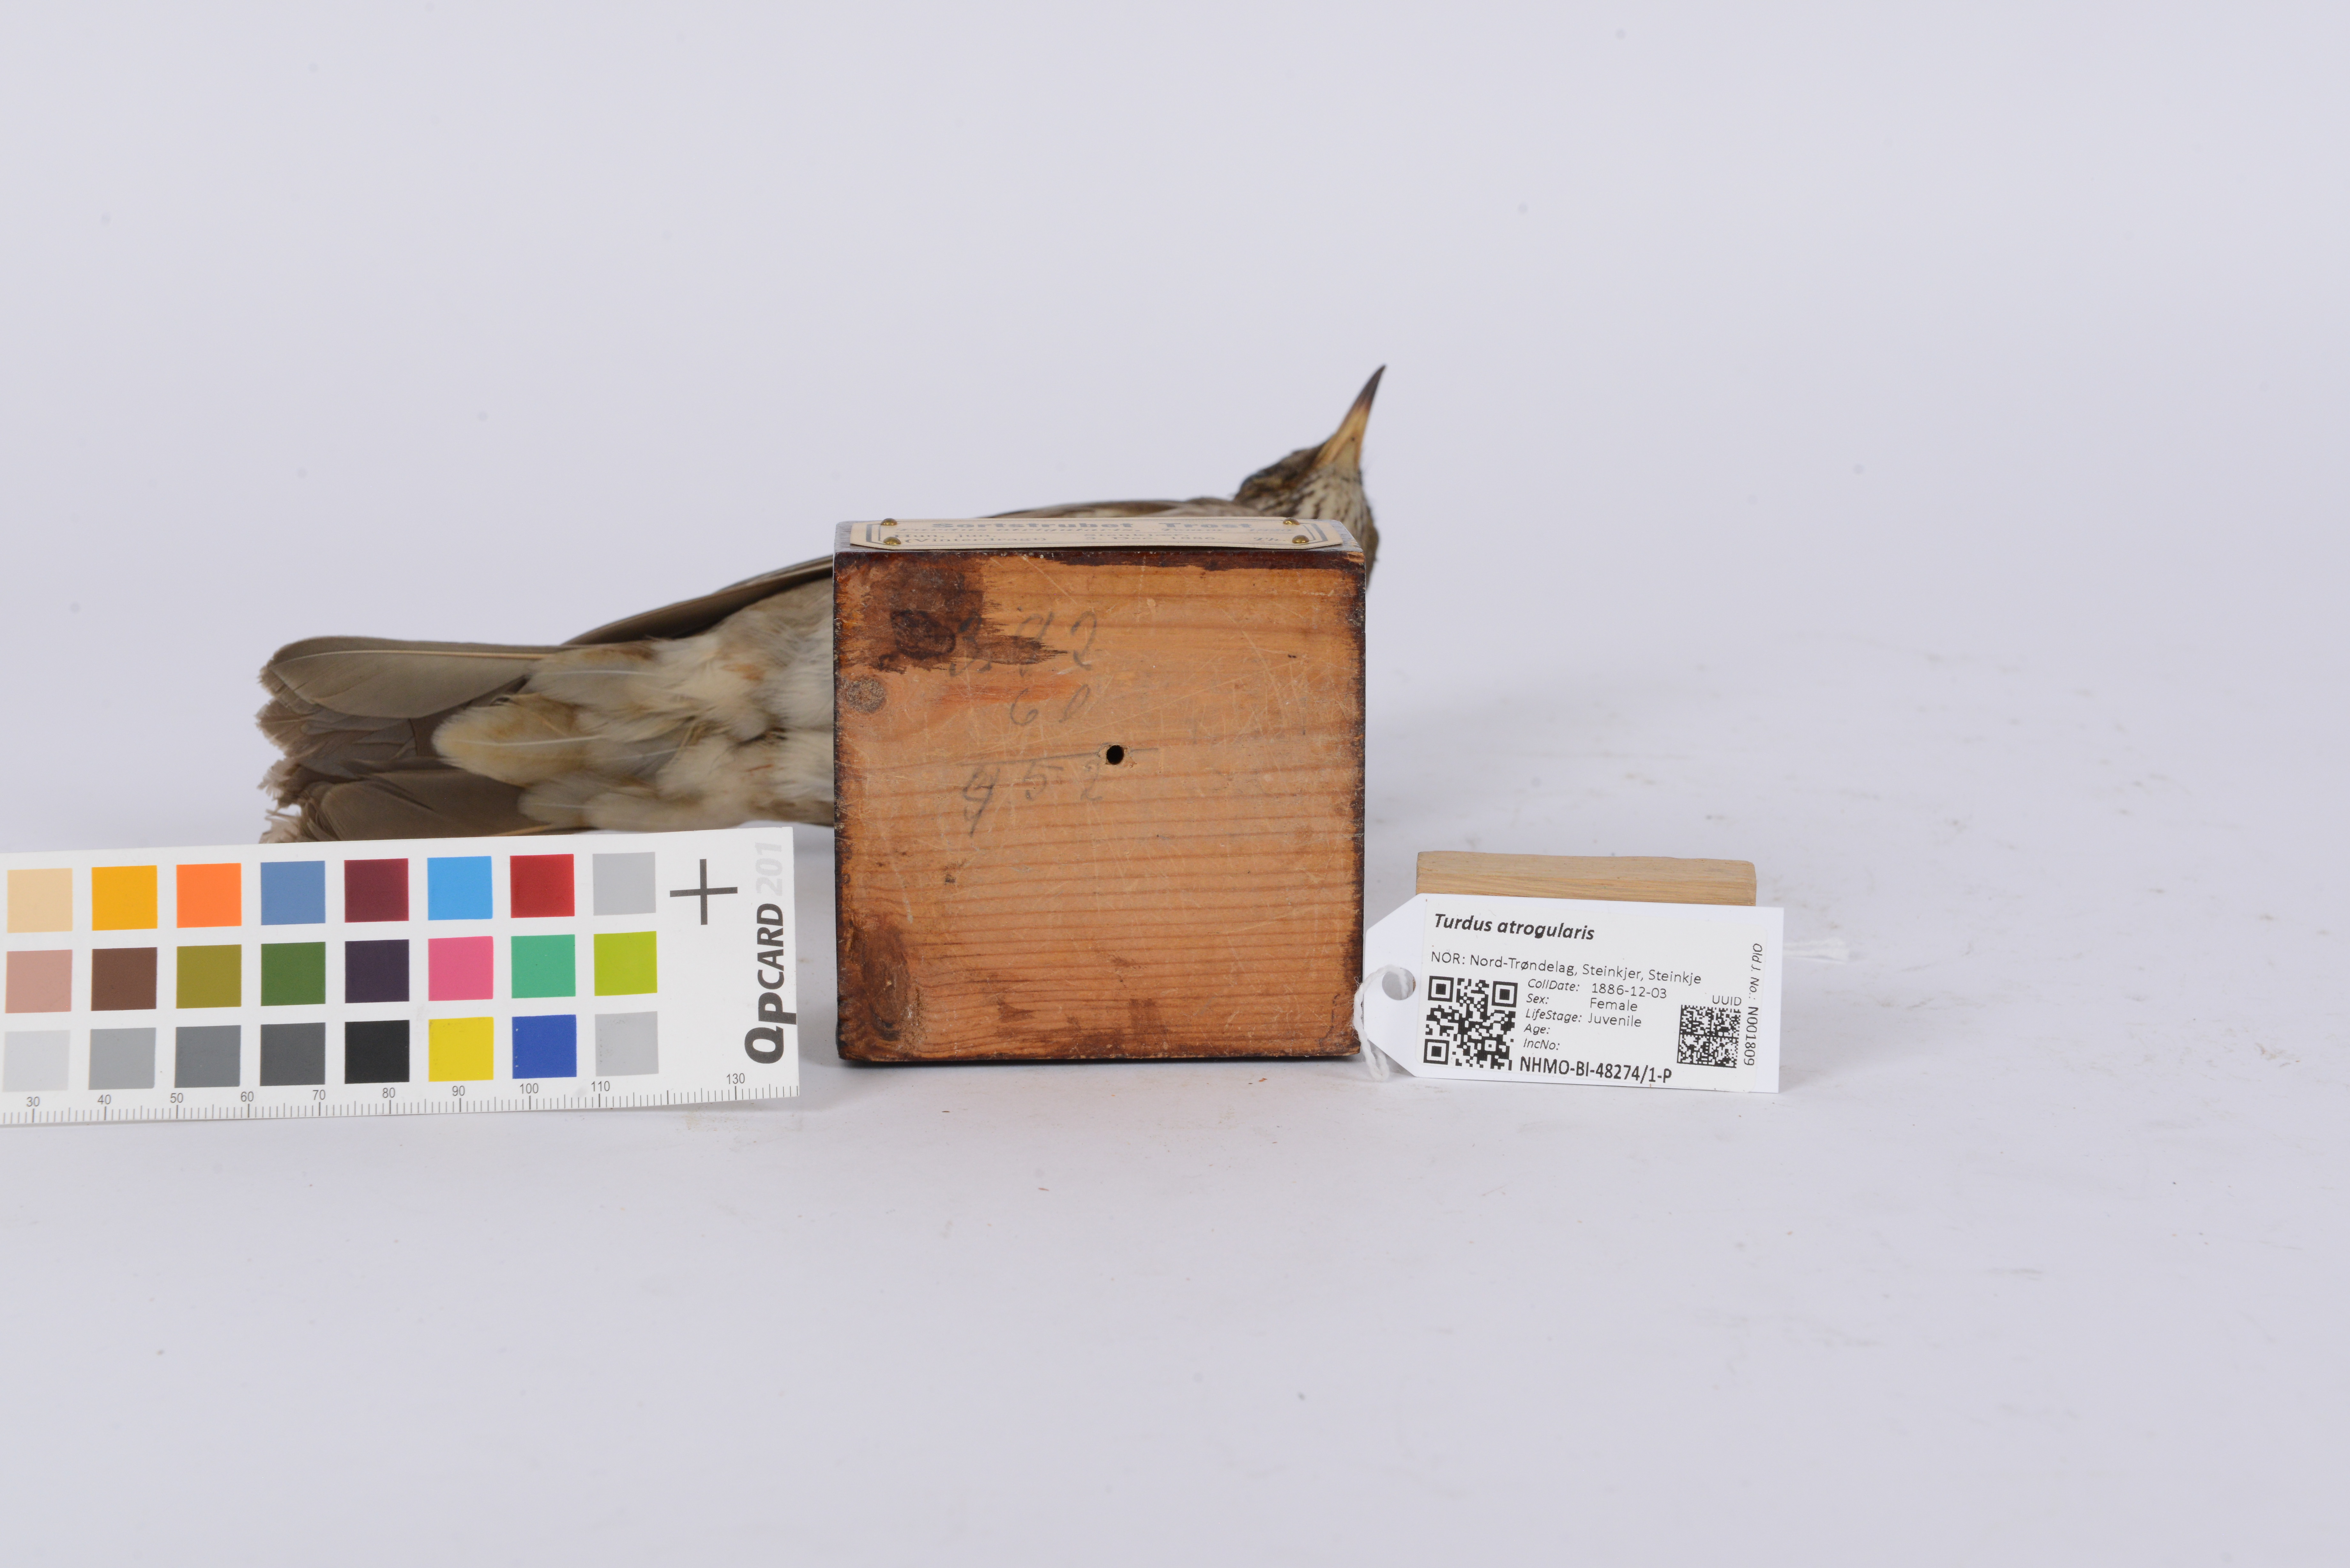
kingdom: Animalia
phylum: Chordata
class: Aves
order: Passeriformes
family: Turdidae
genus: Turdus
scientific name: Turdus atrogularis
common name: Black-throated thrush
